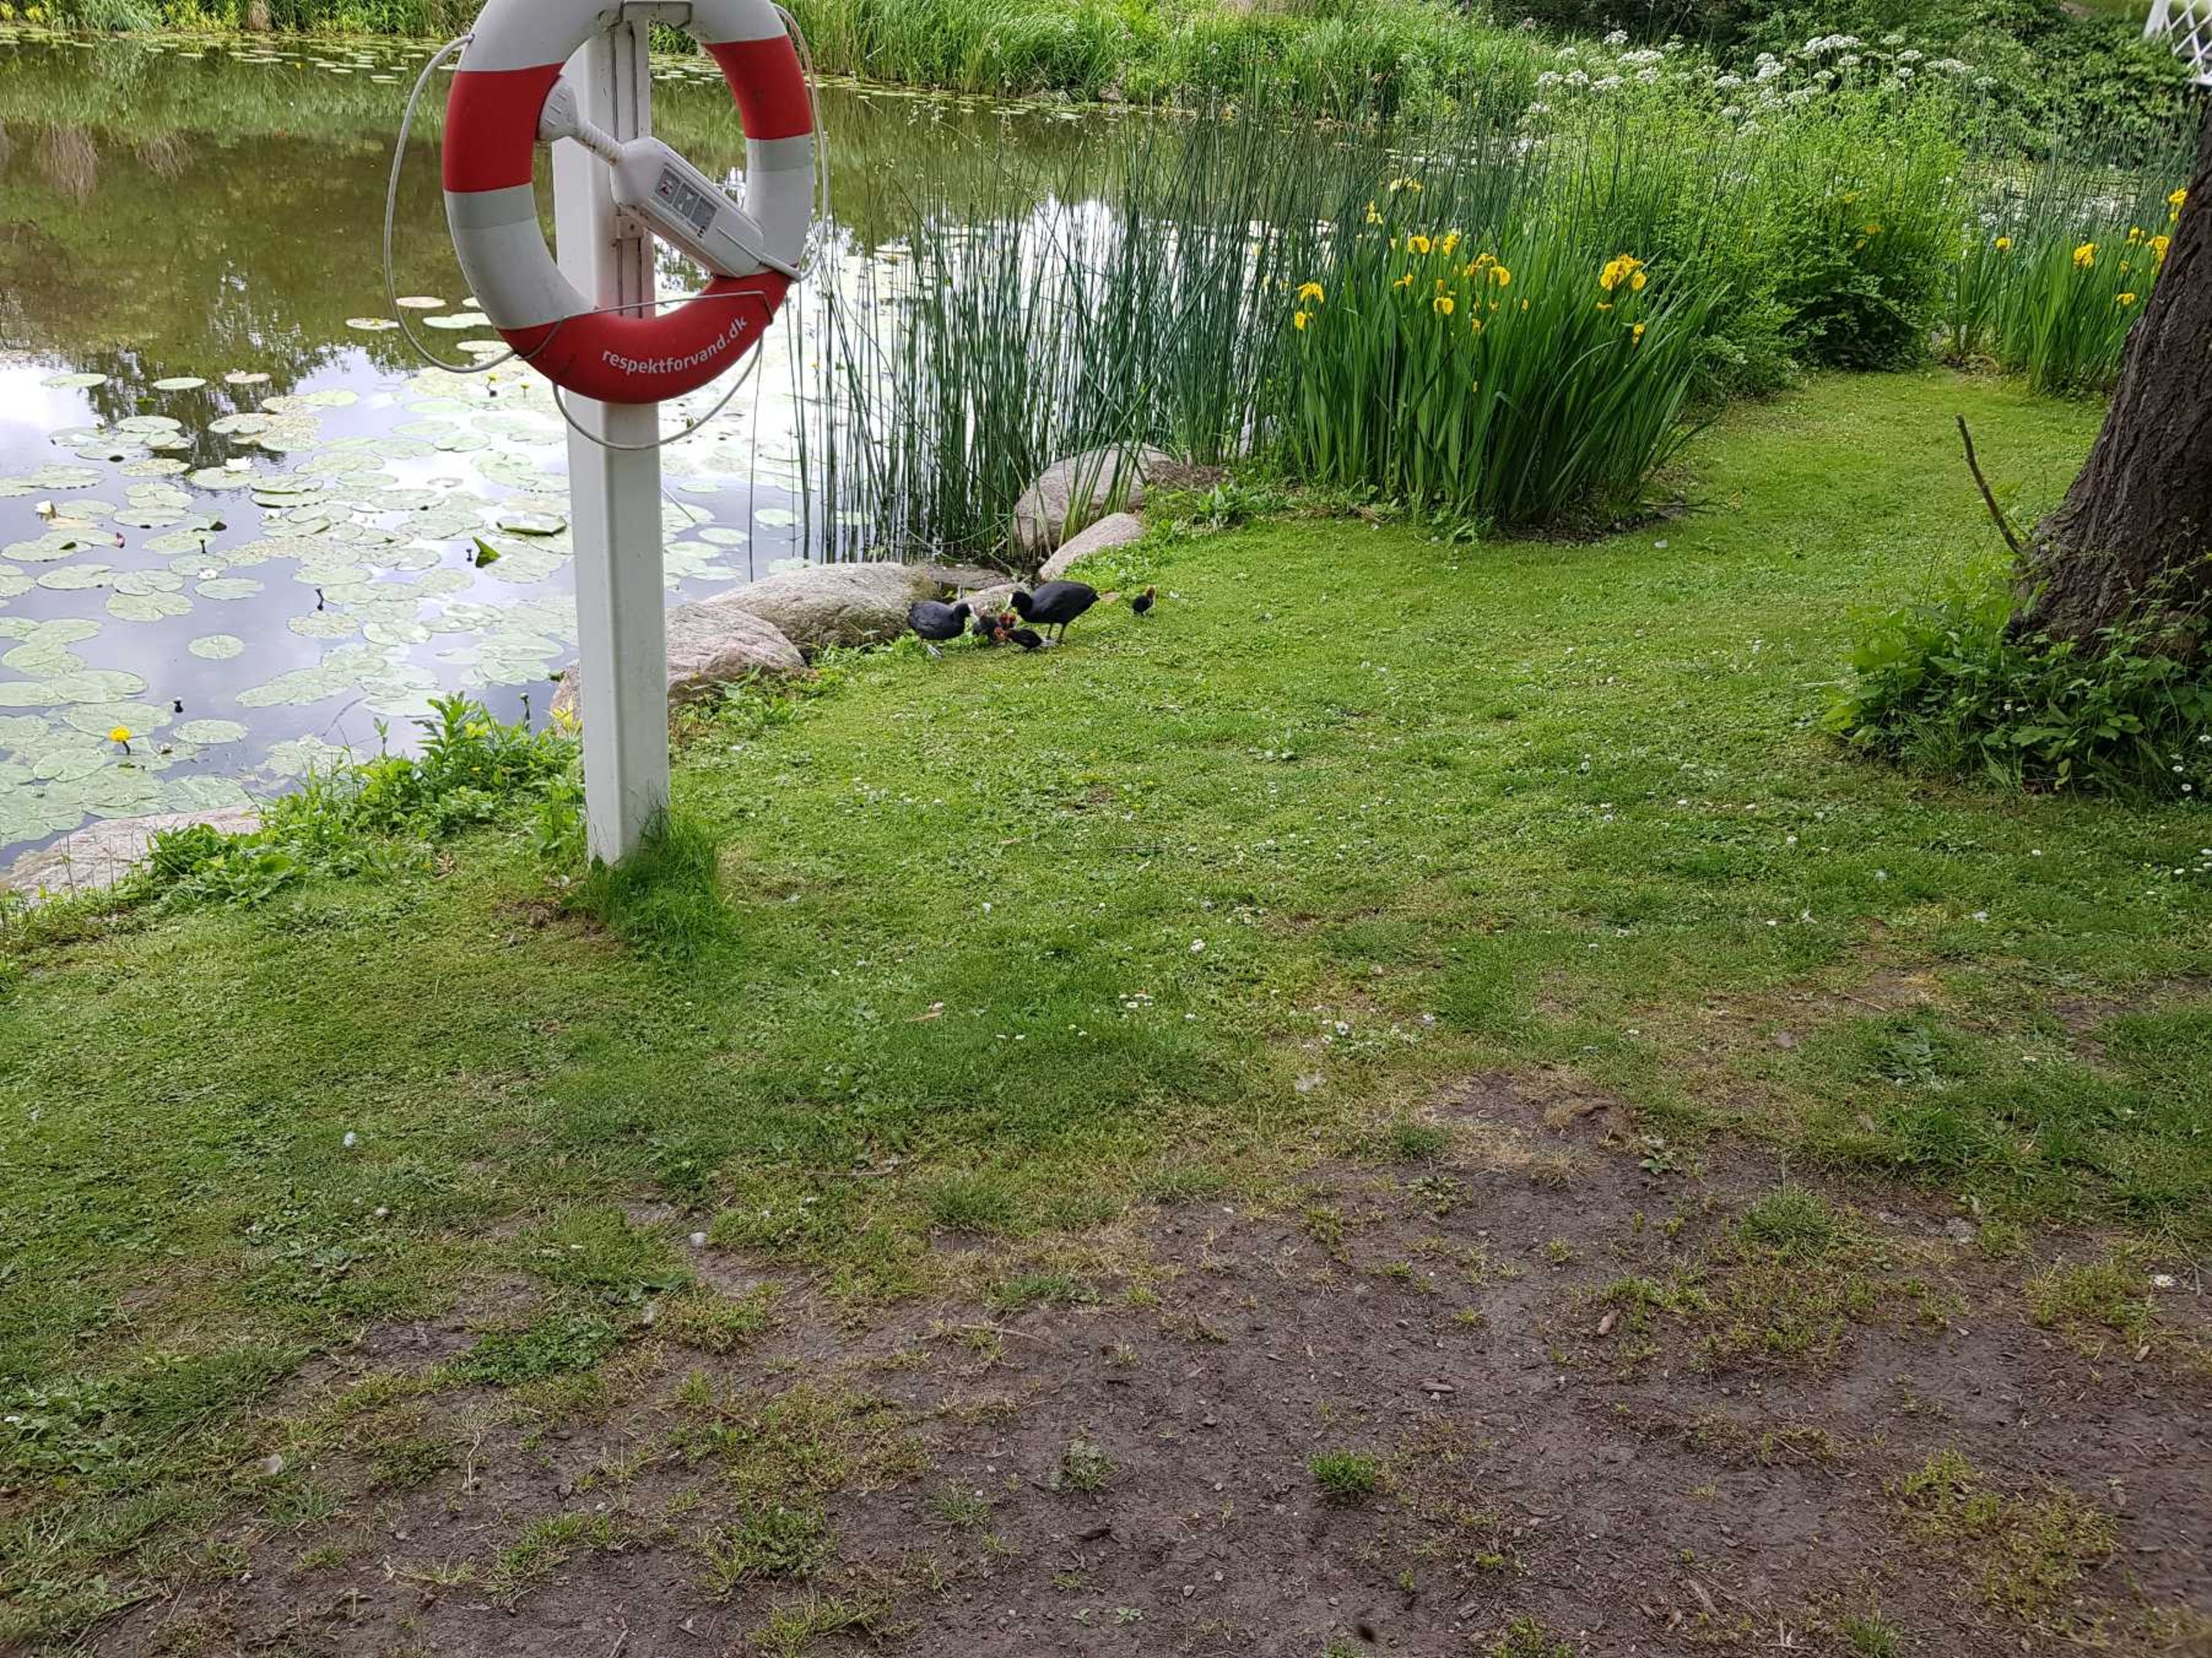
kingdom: Animalia
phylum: Chordata
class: Aves
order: Gruiformes
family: Rallidae
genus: Fulica
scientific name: Fulica atra
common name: Blishøne
